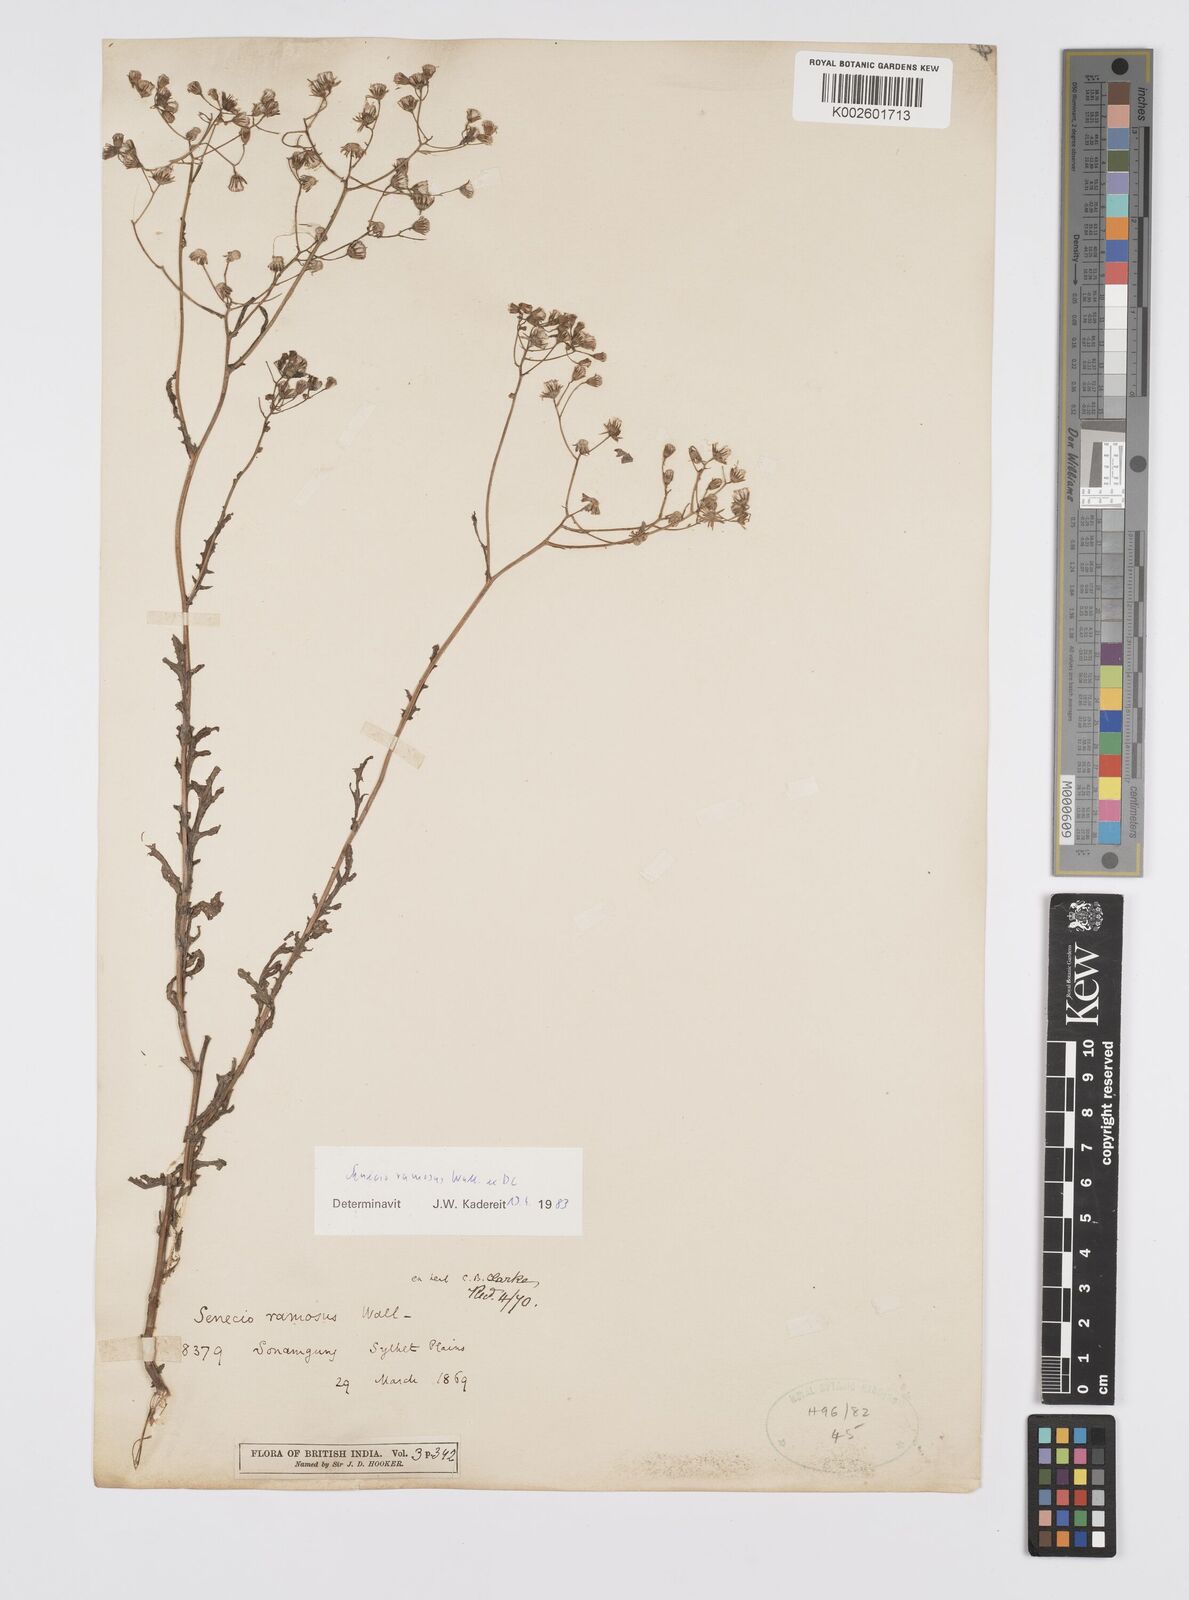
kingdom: Plantae
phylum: Tracheophyta
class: Magnoliopsida
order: Asterales
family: Asteraceae
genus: Senecio
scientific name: Senecio ramosus
